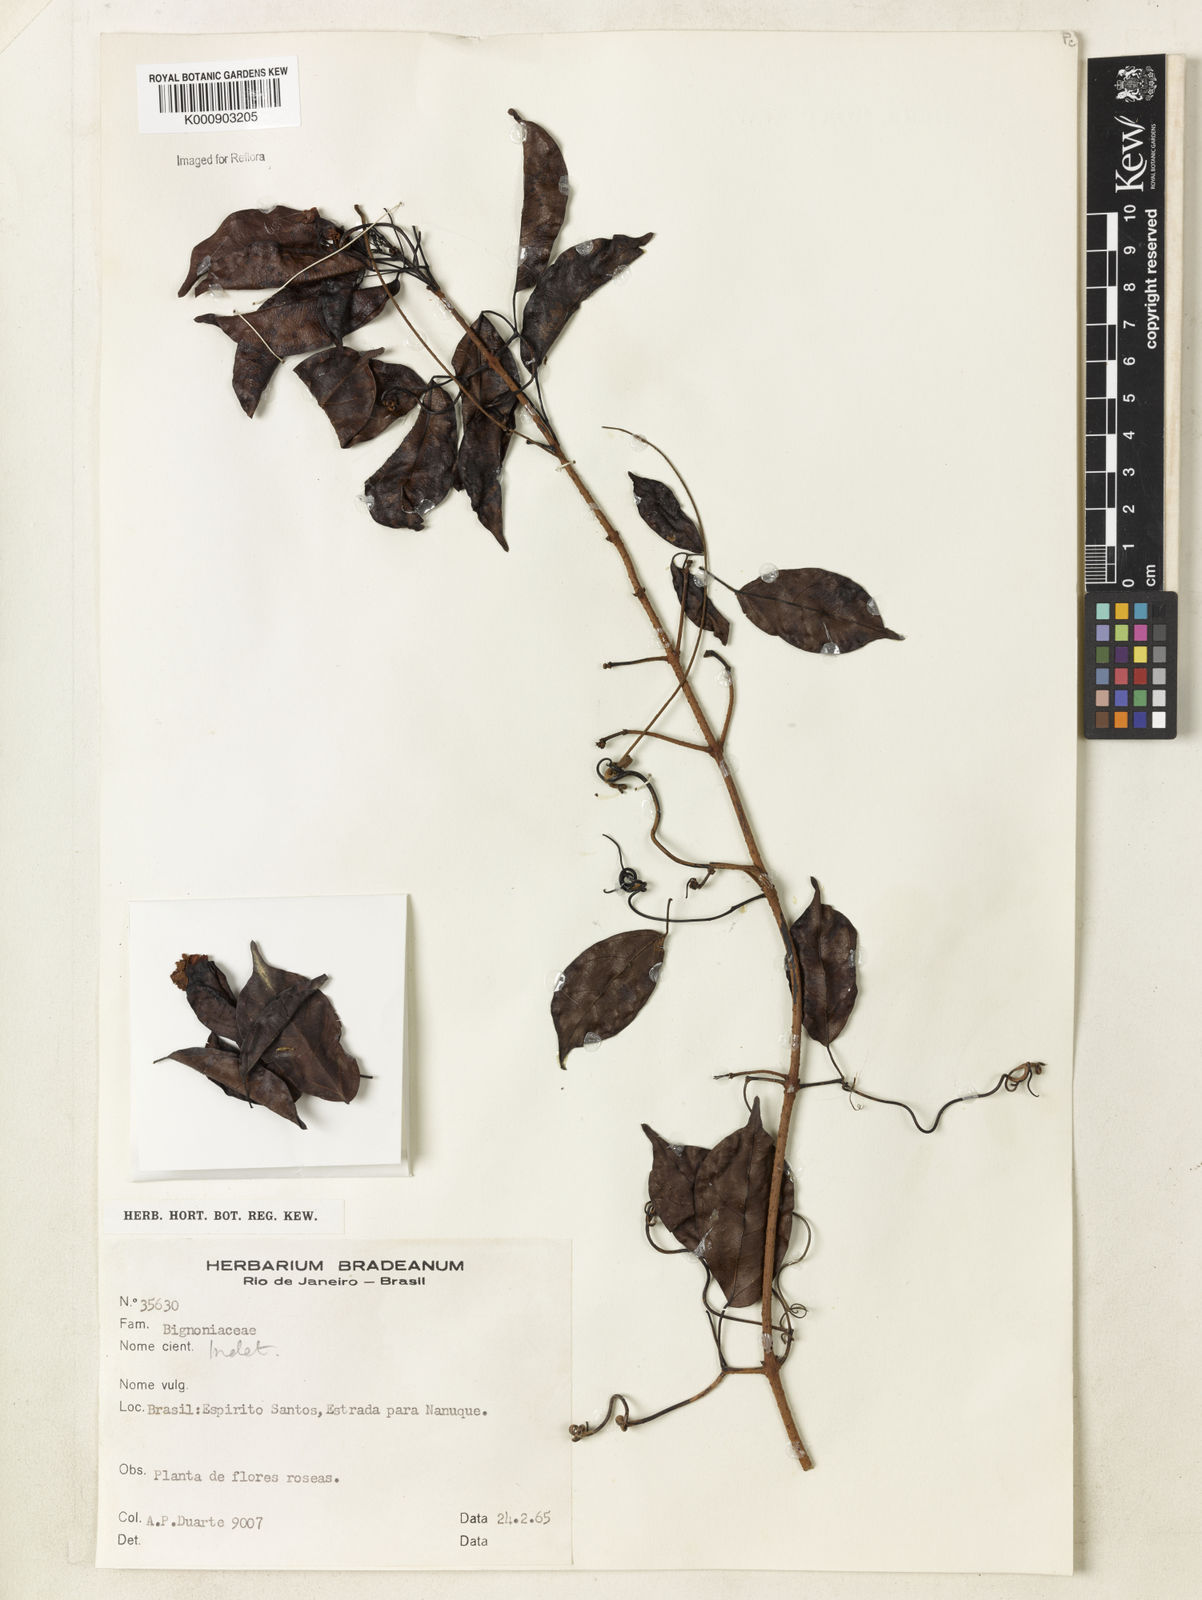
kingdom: Plantae
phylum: Tracheophyta
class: Magnoliopsida
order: Lamiales
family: Bignoniaceae
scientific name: Bignoniaceae
